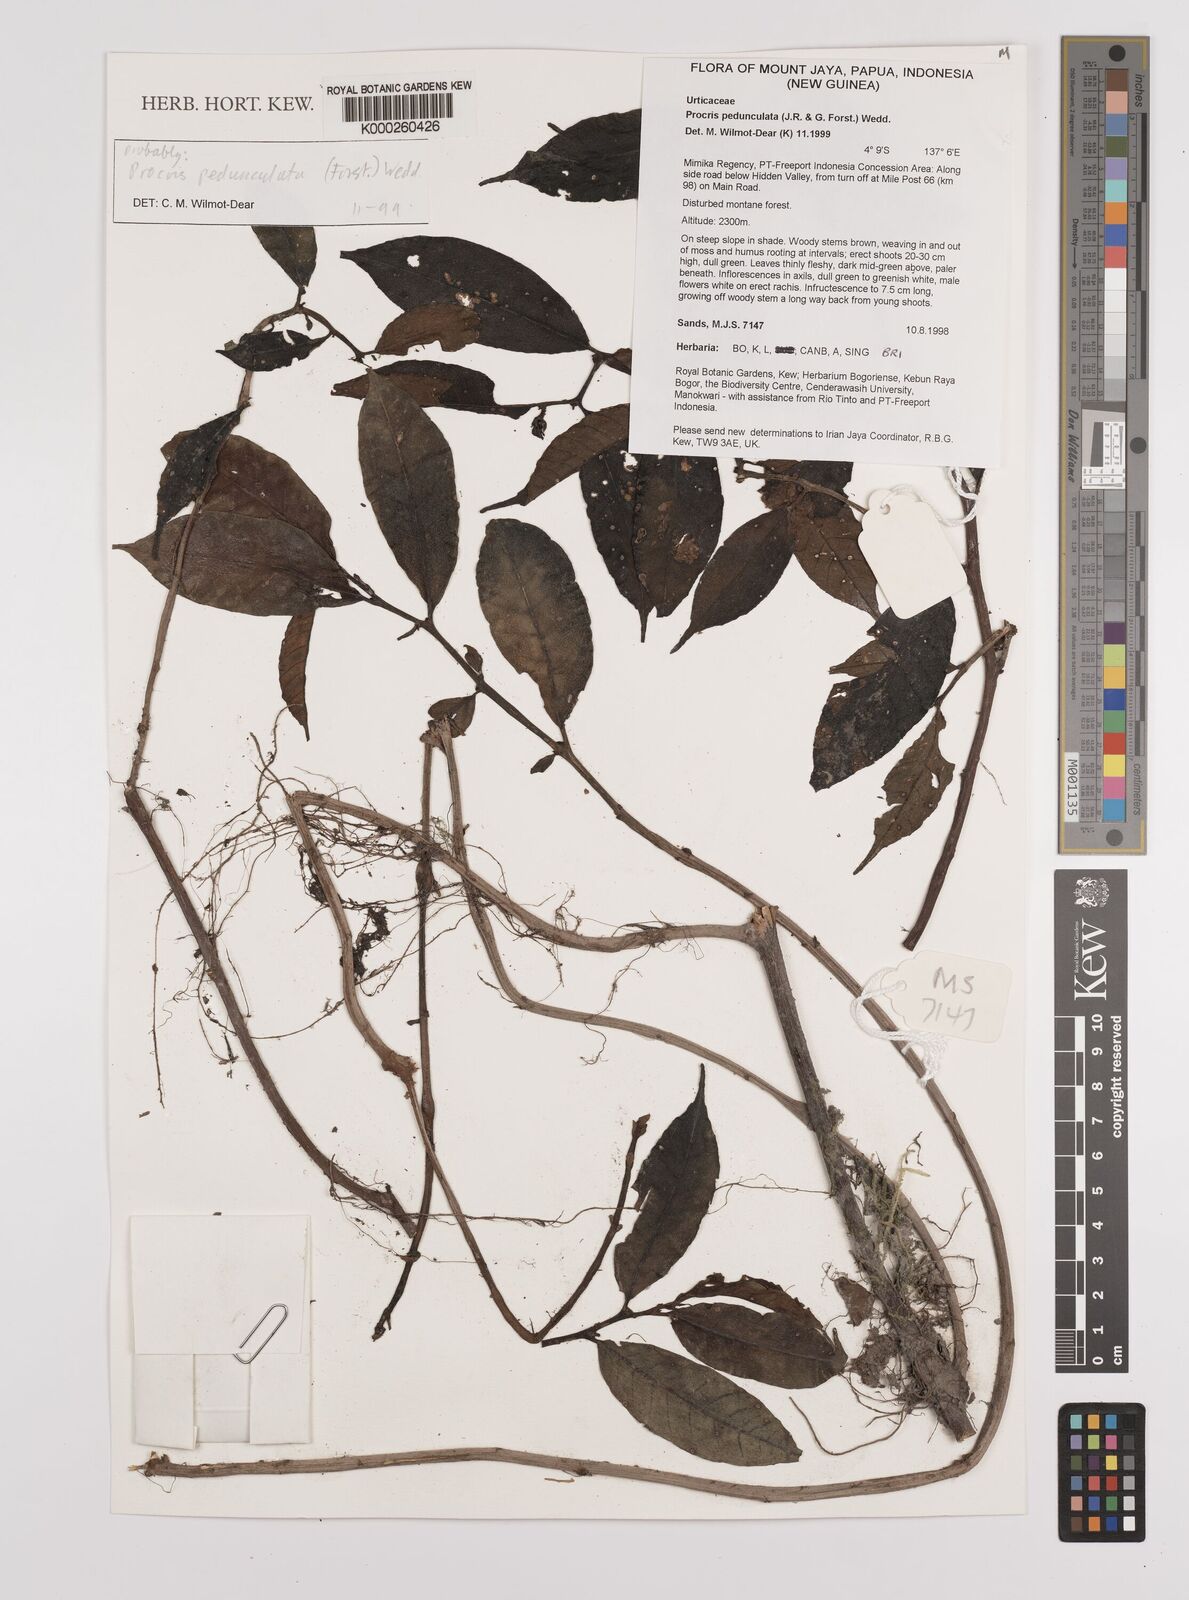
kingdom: Plantae
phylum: Tracheophyta
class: Magnoliopsida
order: Rosales
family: Urticaceae
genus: Procris
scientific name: Procris pedunculata
